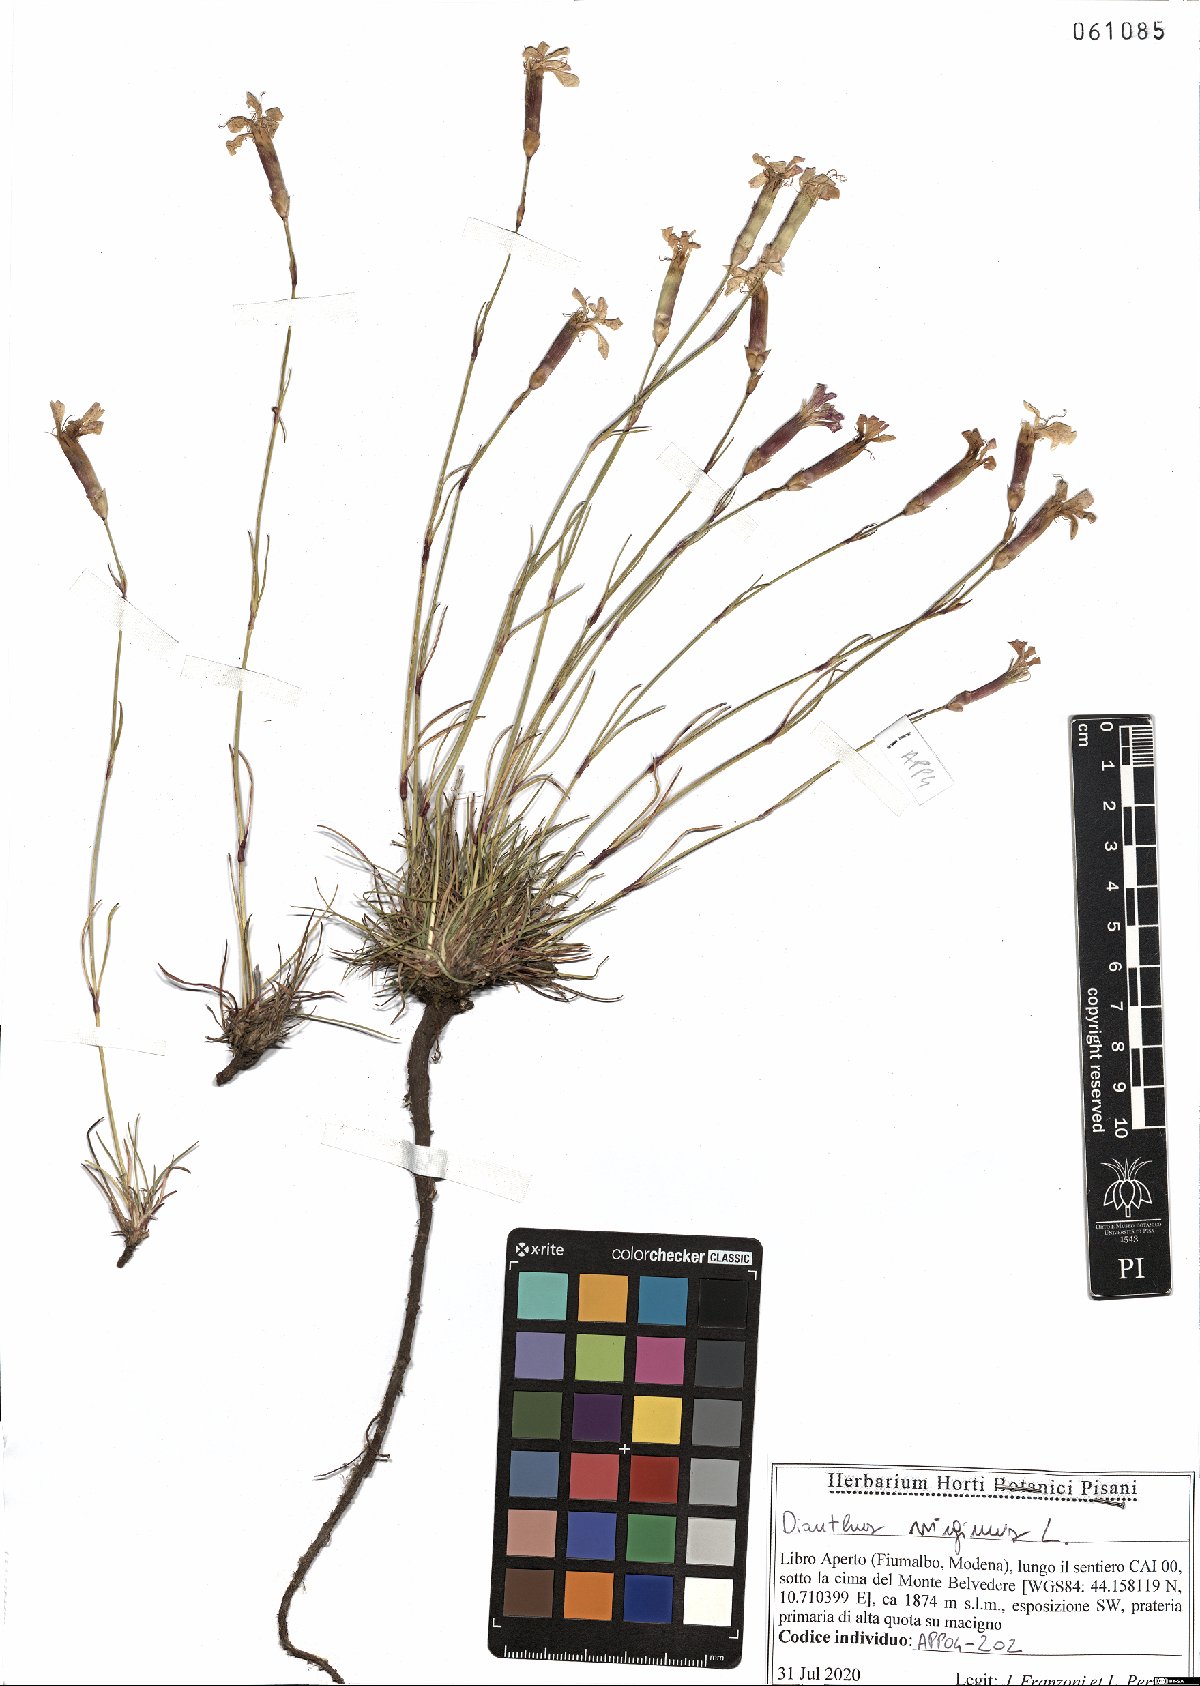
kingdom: Plantae
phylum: Tracheophyta
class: Magnoliopsida
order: Caryophyllales
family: Caryophyllaceae
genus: Dianthus
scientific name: Dianthus virgineus
